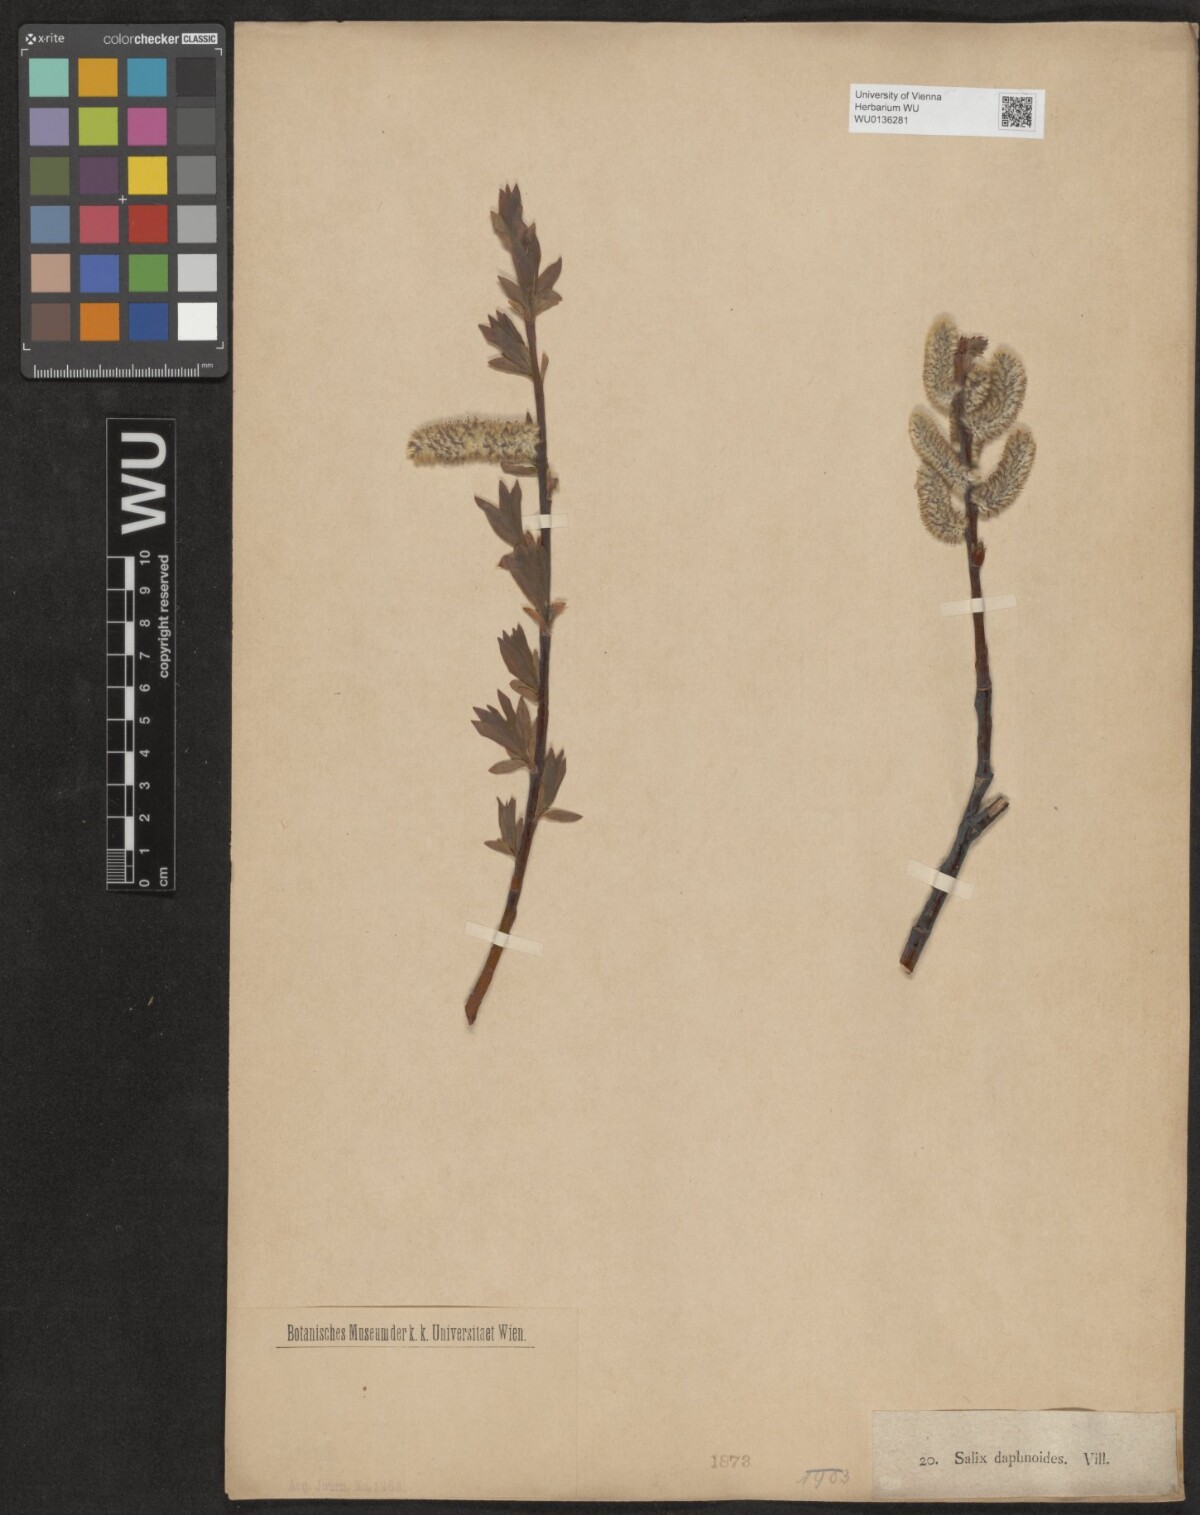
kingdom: Plantae
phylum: Tracheophyta
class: Magnoliopsida
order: Malpighiales
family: Salicaceae
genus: Salix
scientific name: Salix daphnoides
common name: European violet-willow
